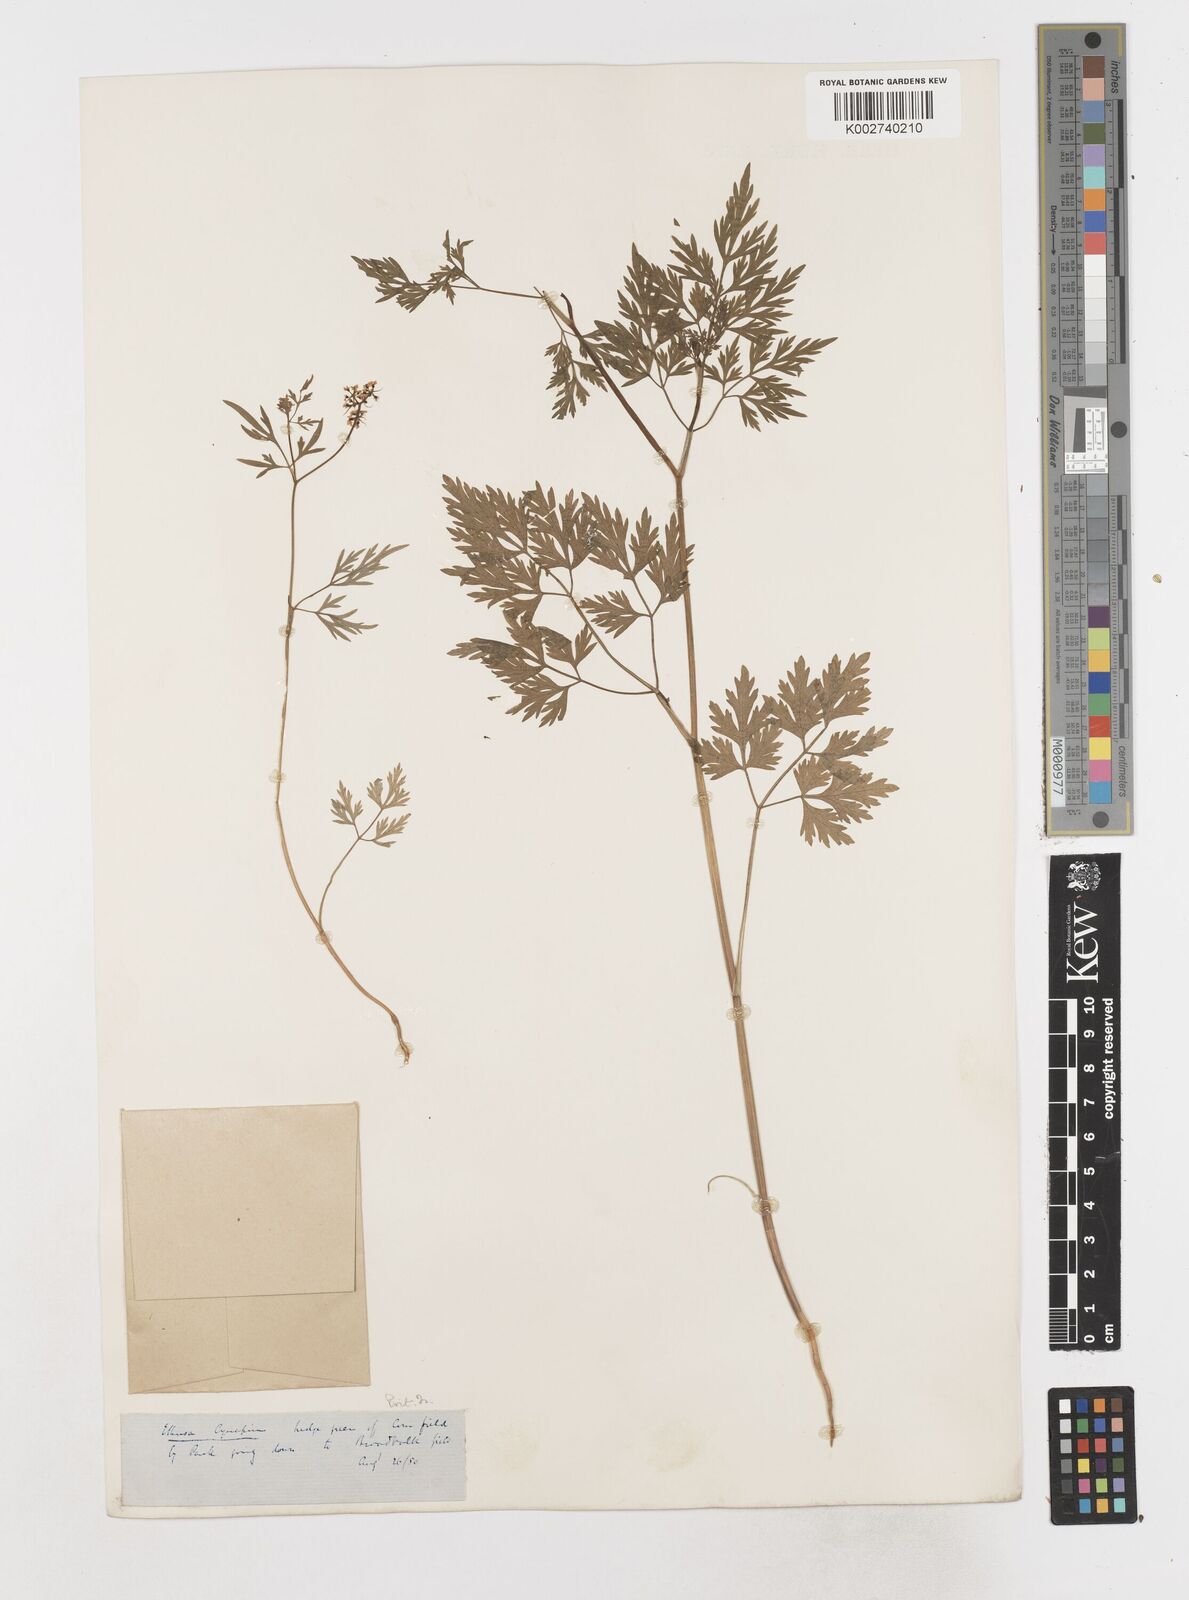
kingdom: Plantae
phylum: Tracheophyta
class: Magnoliopsida
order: Apiales
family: Apiaceae
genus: Aethusa
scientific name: Aethusa cynapium
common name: Fool's parsley
